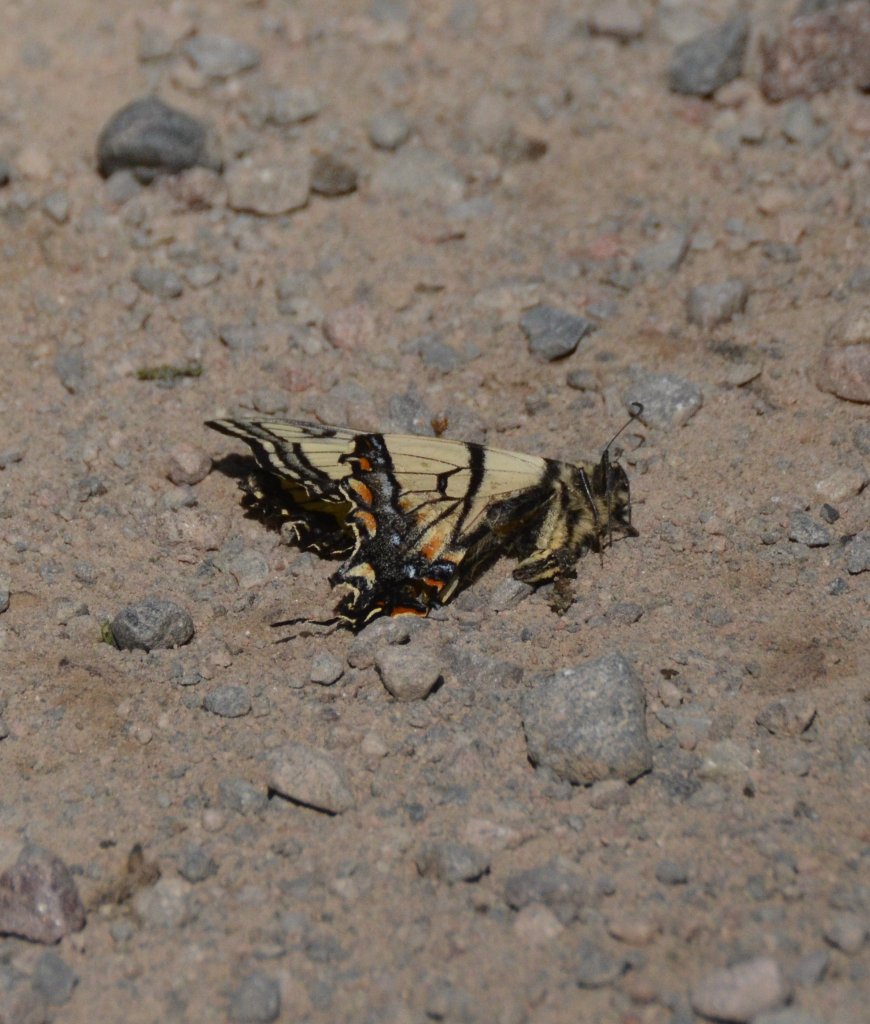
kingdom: Animalia
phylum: Arthropoda
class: Insecta
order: Lepidoptera
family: Papilionidae
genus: Pterourus
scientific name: Pterourus canadensis
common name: Canadian Tiger Swallowtail
